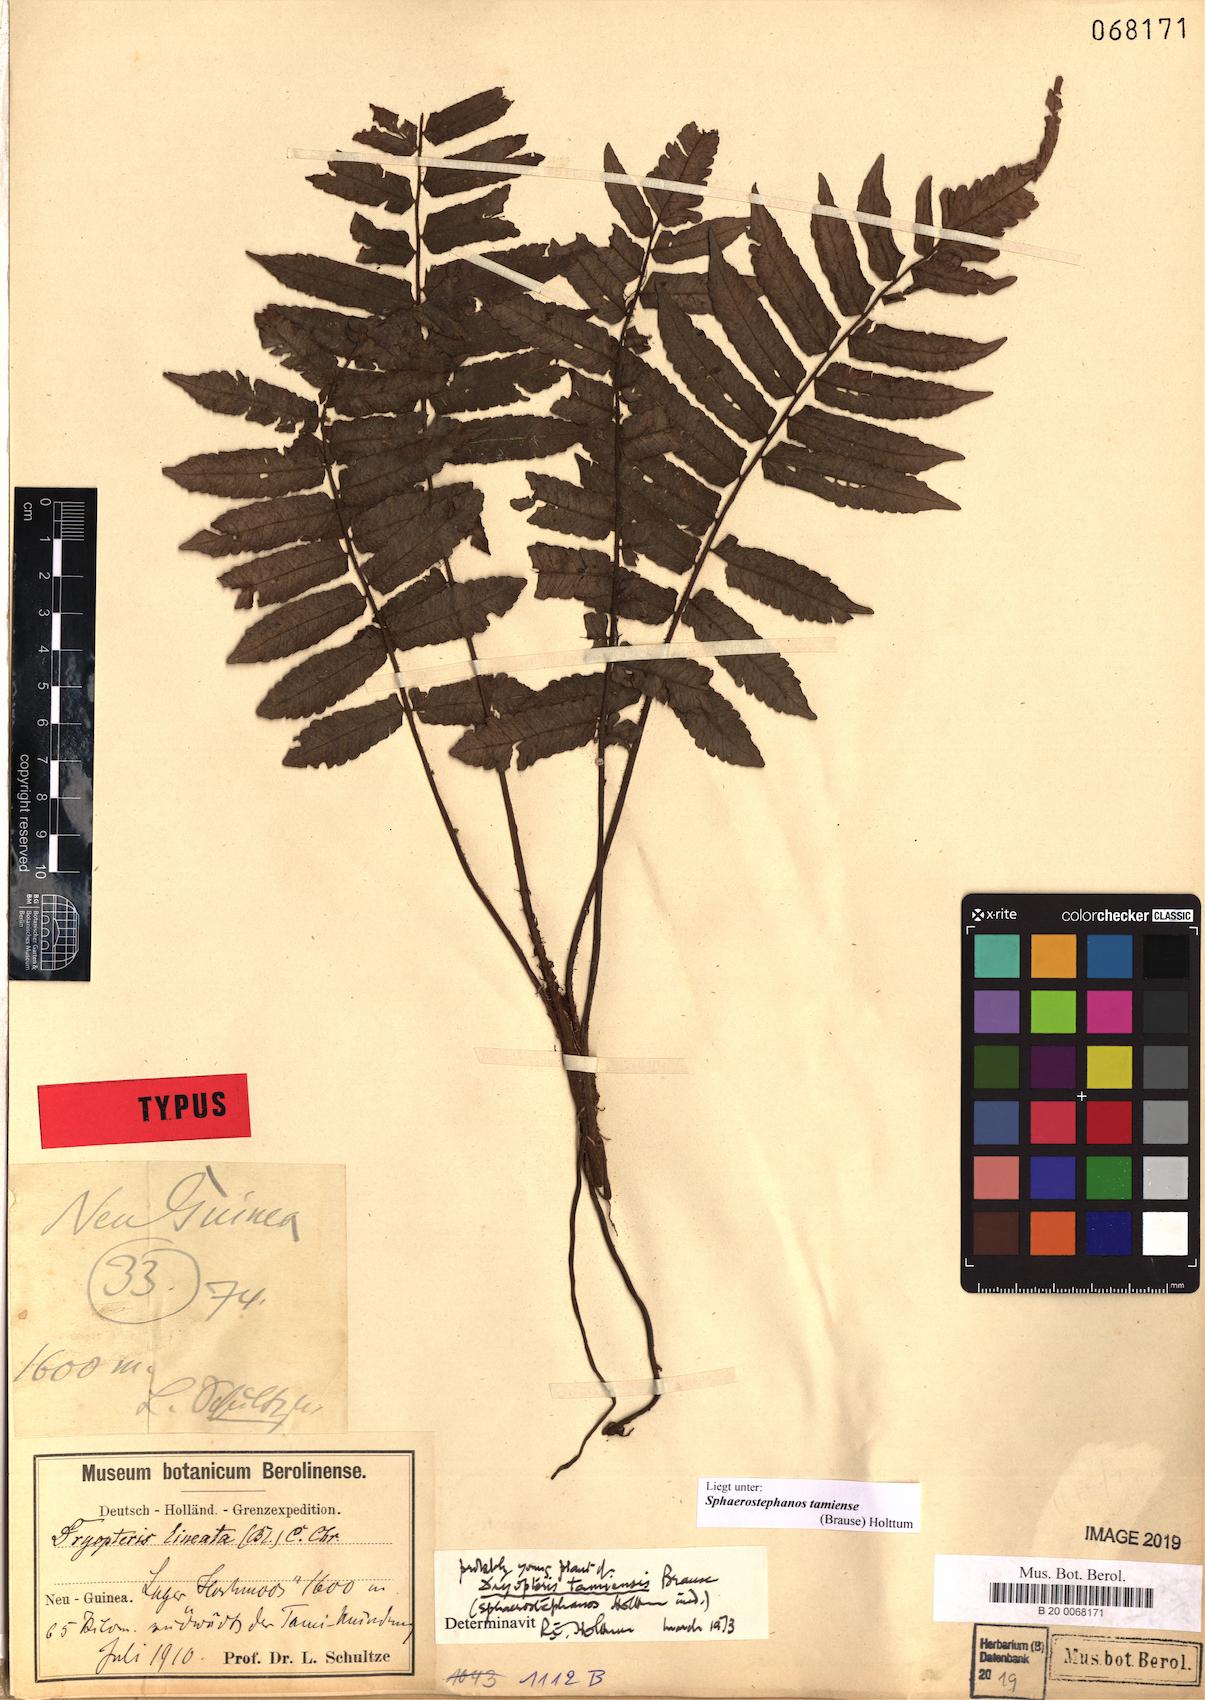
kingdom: Plantae
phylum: Tracheophyta
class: Polypodiopsida
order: Polypodiales
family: Thelypteridaceae
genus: Sphaerostephanos
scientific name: Sphaerostephanos tamiensis
